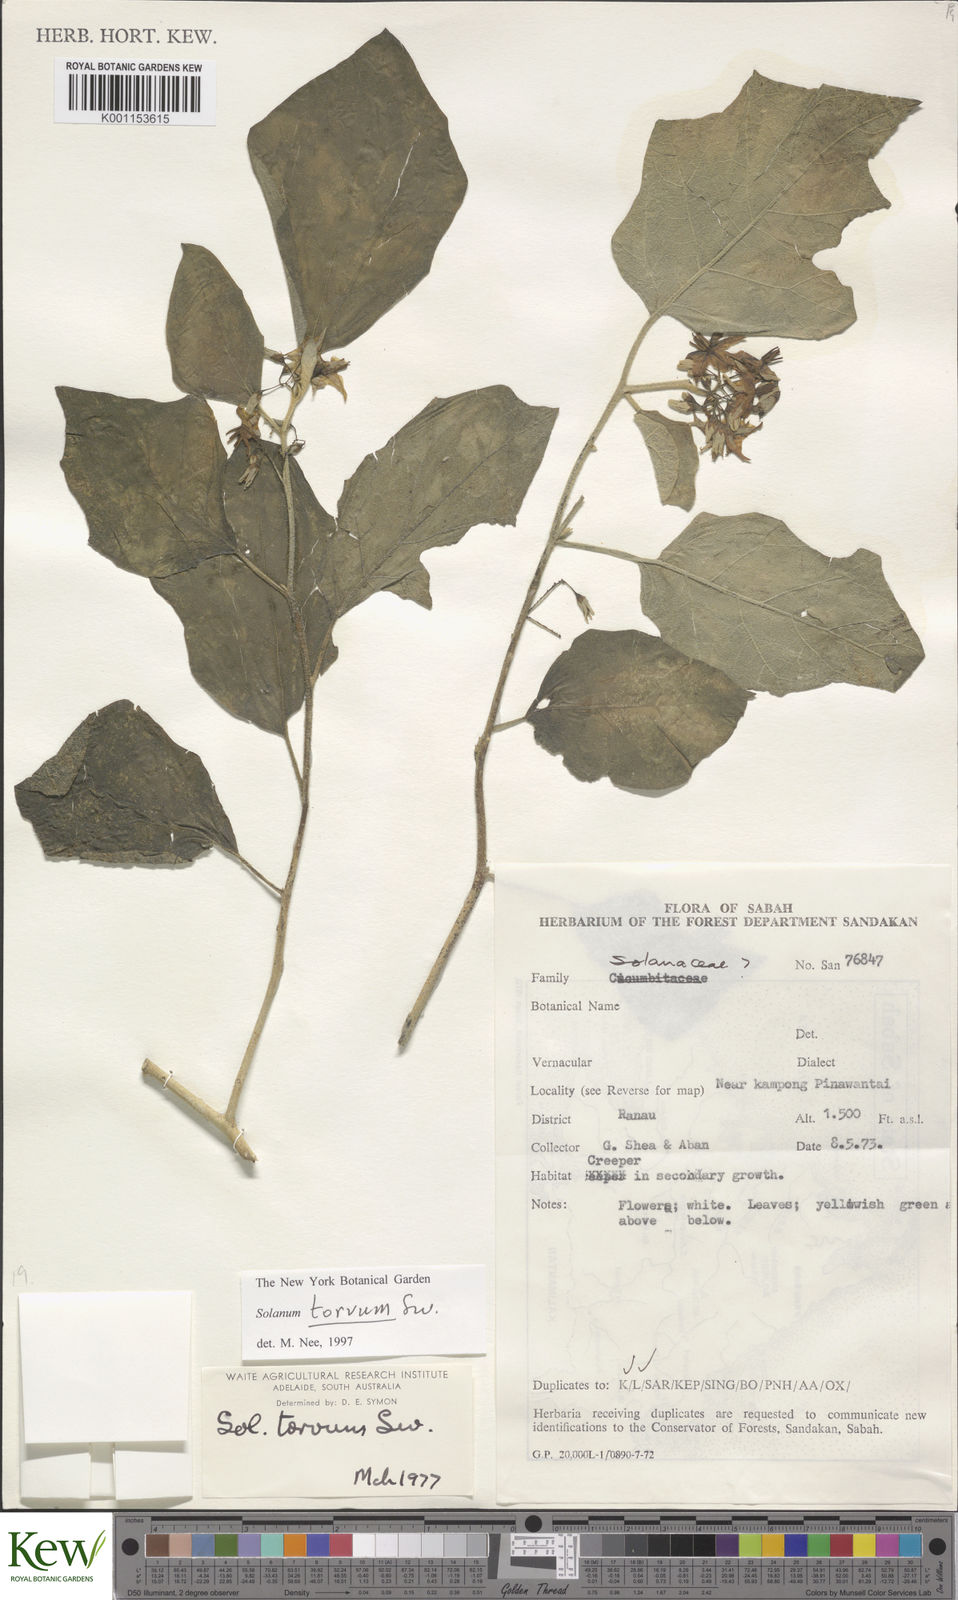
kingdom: Plantae
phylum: Tracheophyta
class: Magnoliopsida
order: Solanales
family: Solanaceae
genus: Solanum
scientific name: Solanum torvum
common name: Turkey berry
